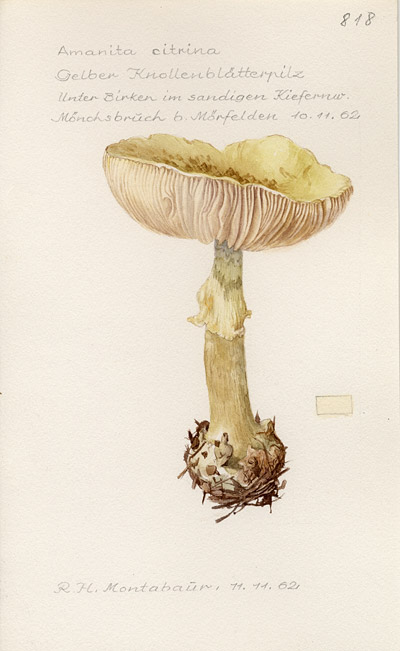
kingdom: Fungi
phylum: Basidiomycota
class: Agaricomycetes
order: Agaricales
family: Amanitaceae
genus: Amanita
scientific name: Amanita citrina
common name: False death-cap
